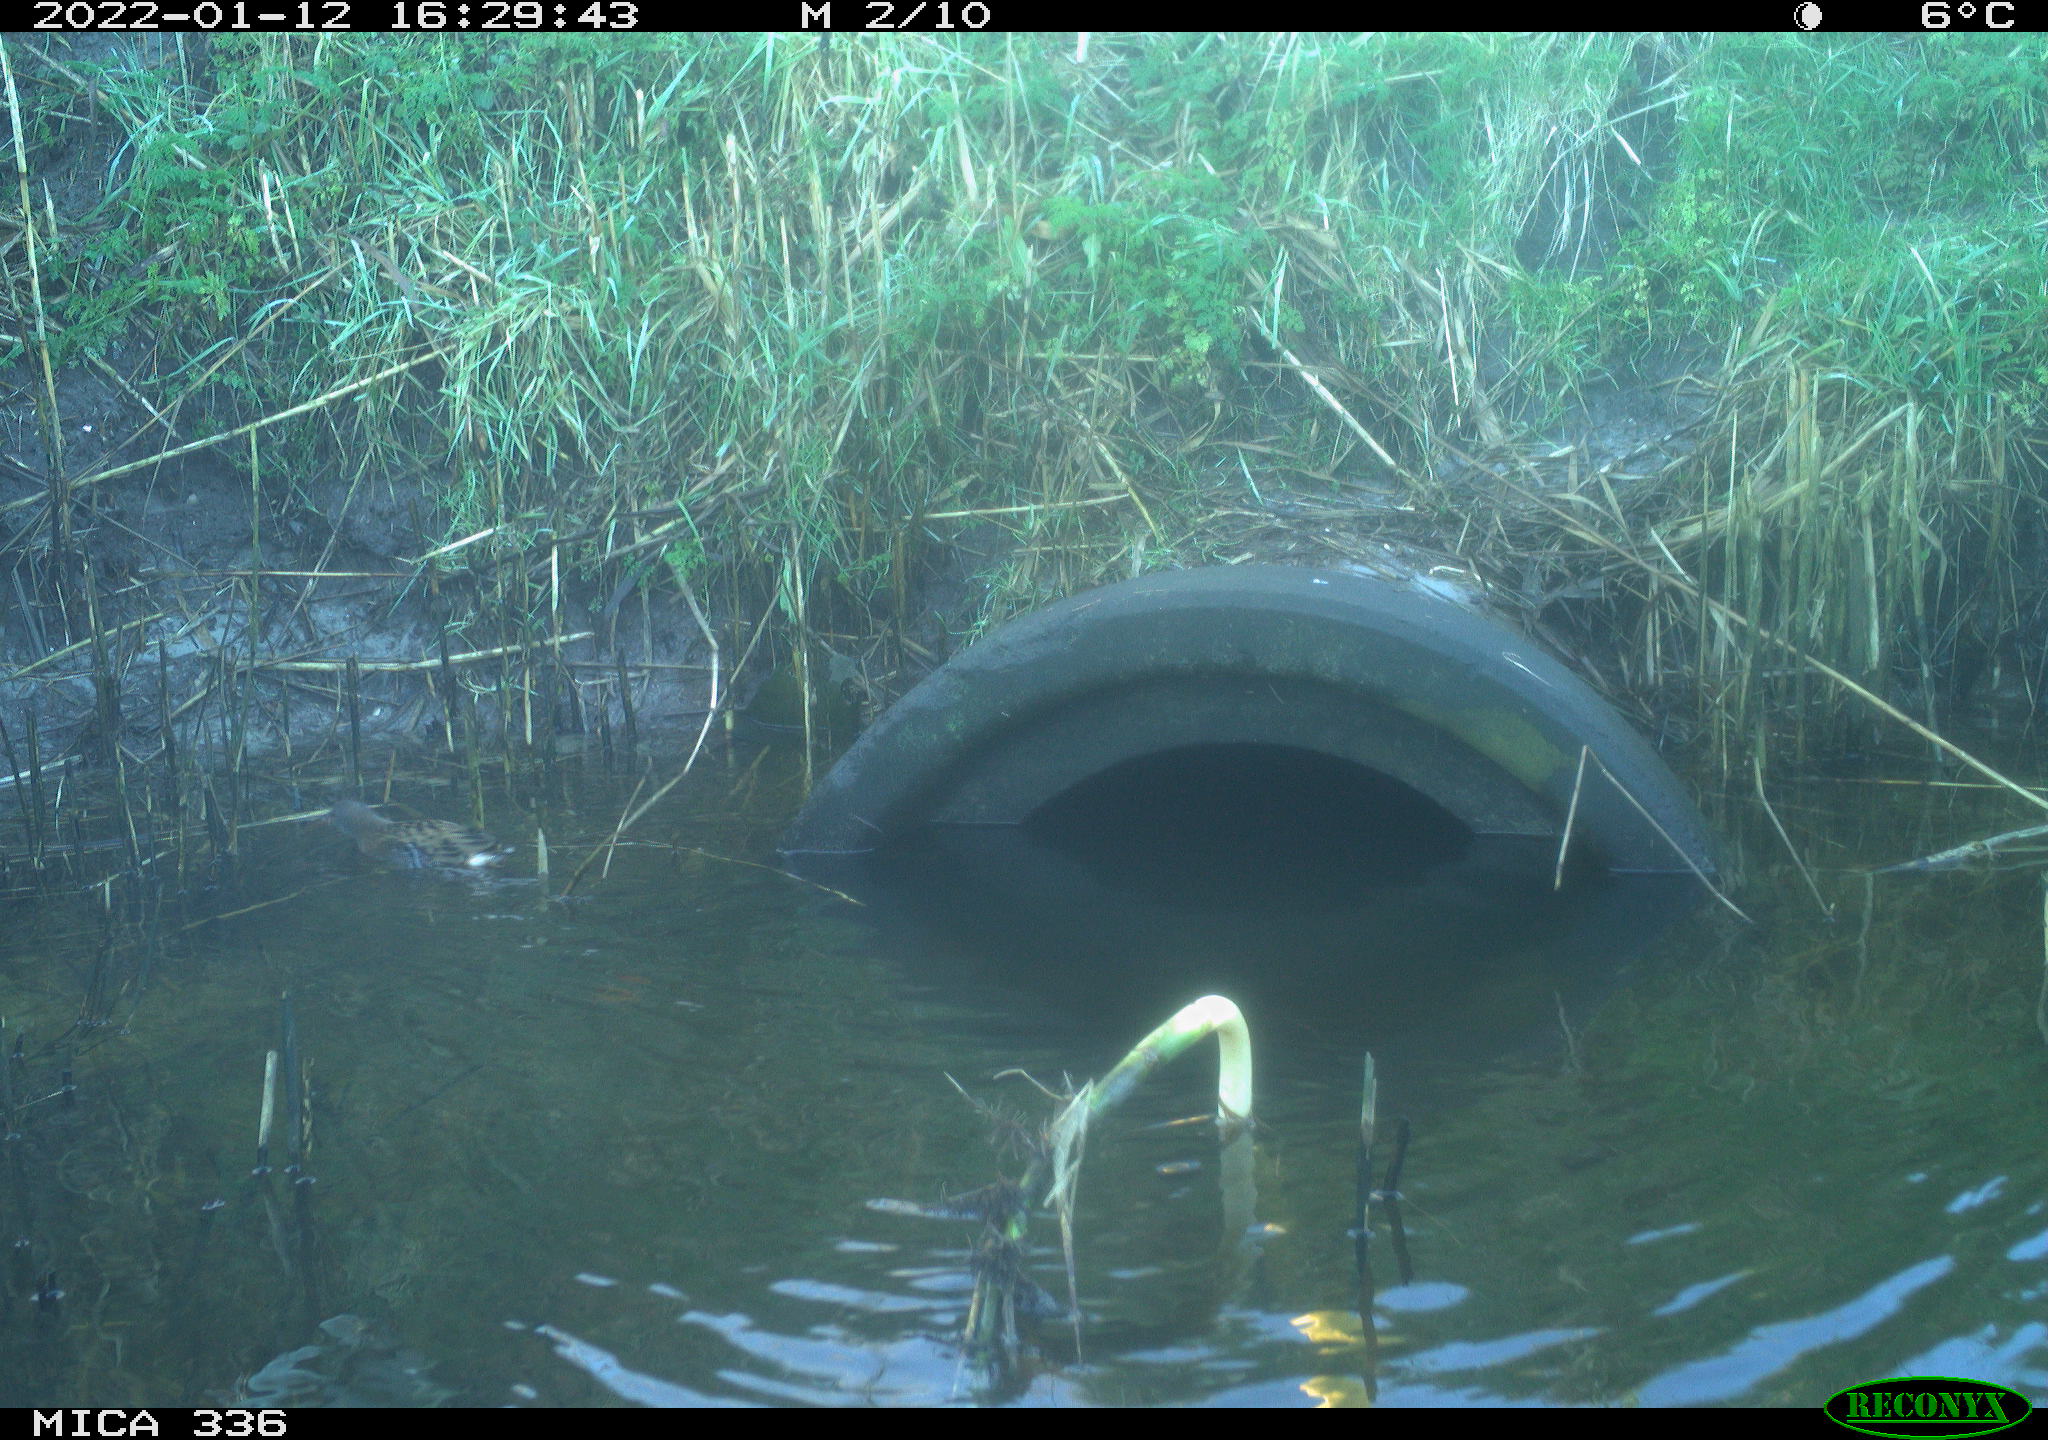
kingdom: Animalia
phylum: Chordata
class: Aves
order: Gruiformes
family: Rallidae
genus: Gallinula
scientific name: Gallinula chloropus
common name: Common moorhen
